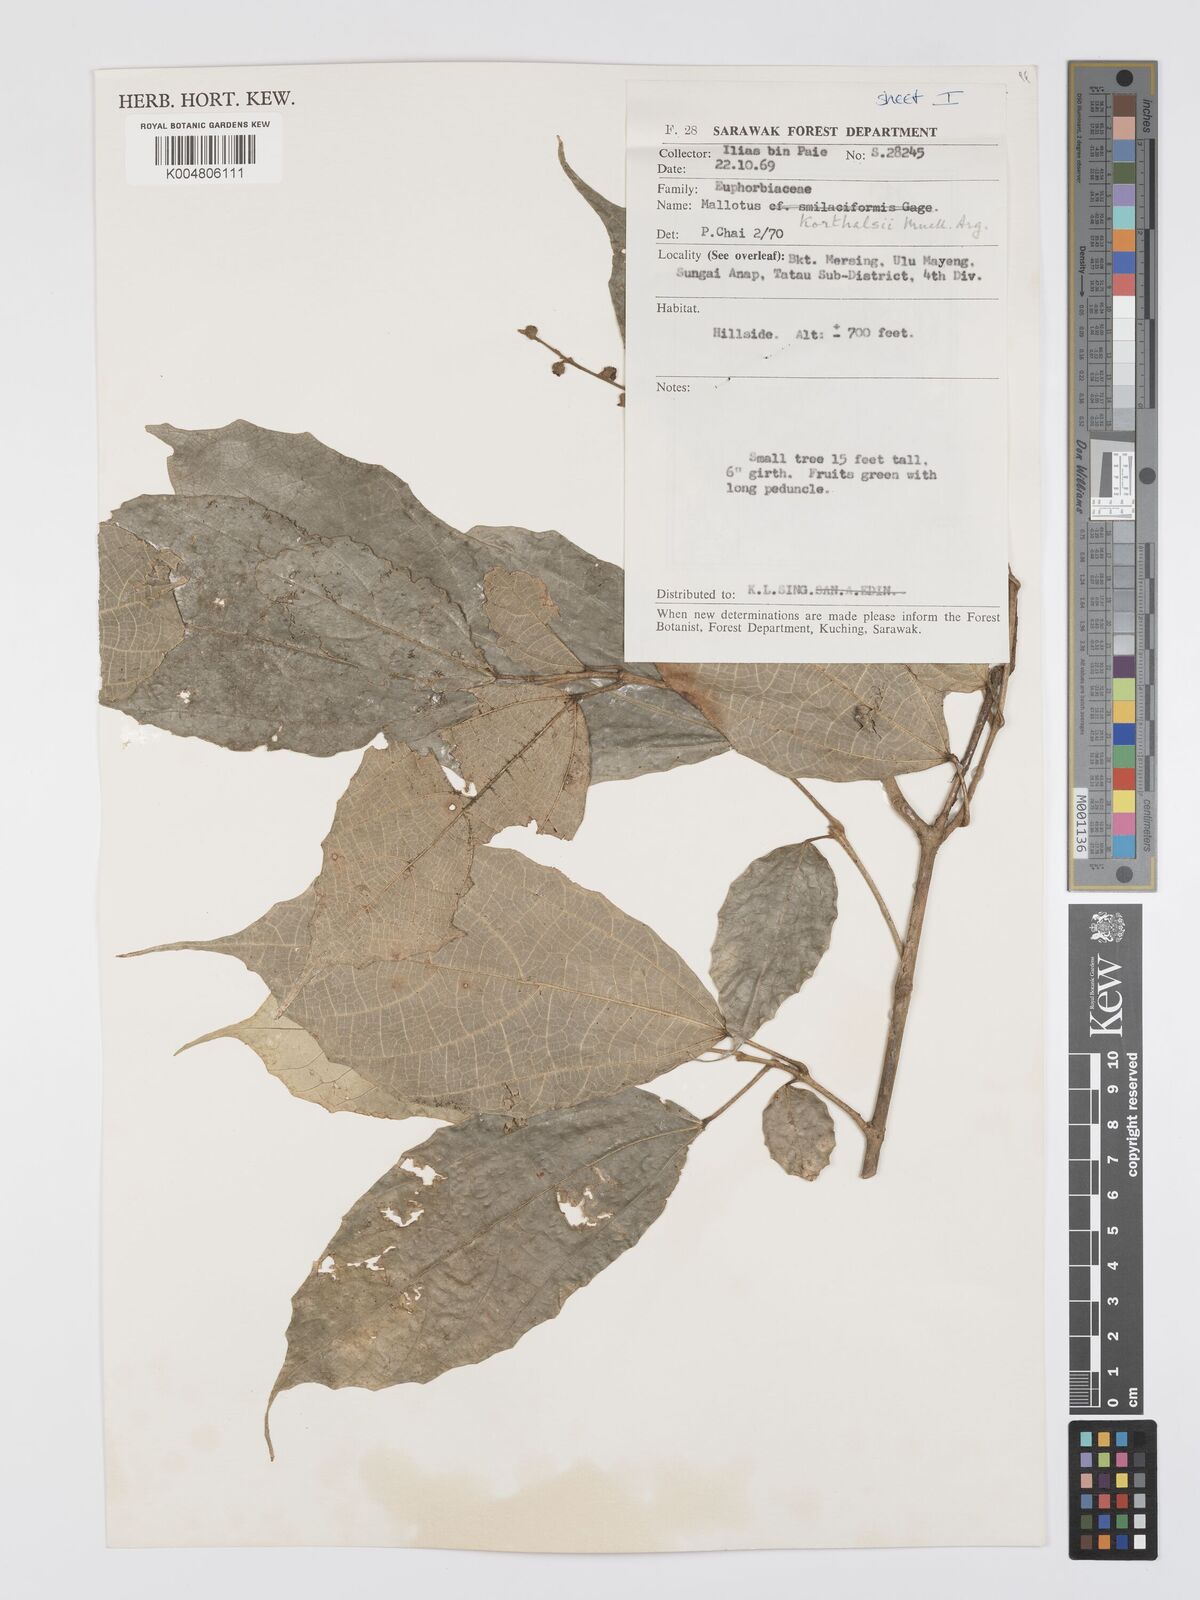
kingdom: Plantae
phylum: Tracheophyta
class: Magnoliopsida
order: Malpighiales
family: Euphorbiaceae
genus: Mallotus
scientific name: Mallotus korthalsii
